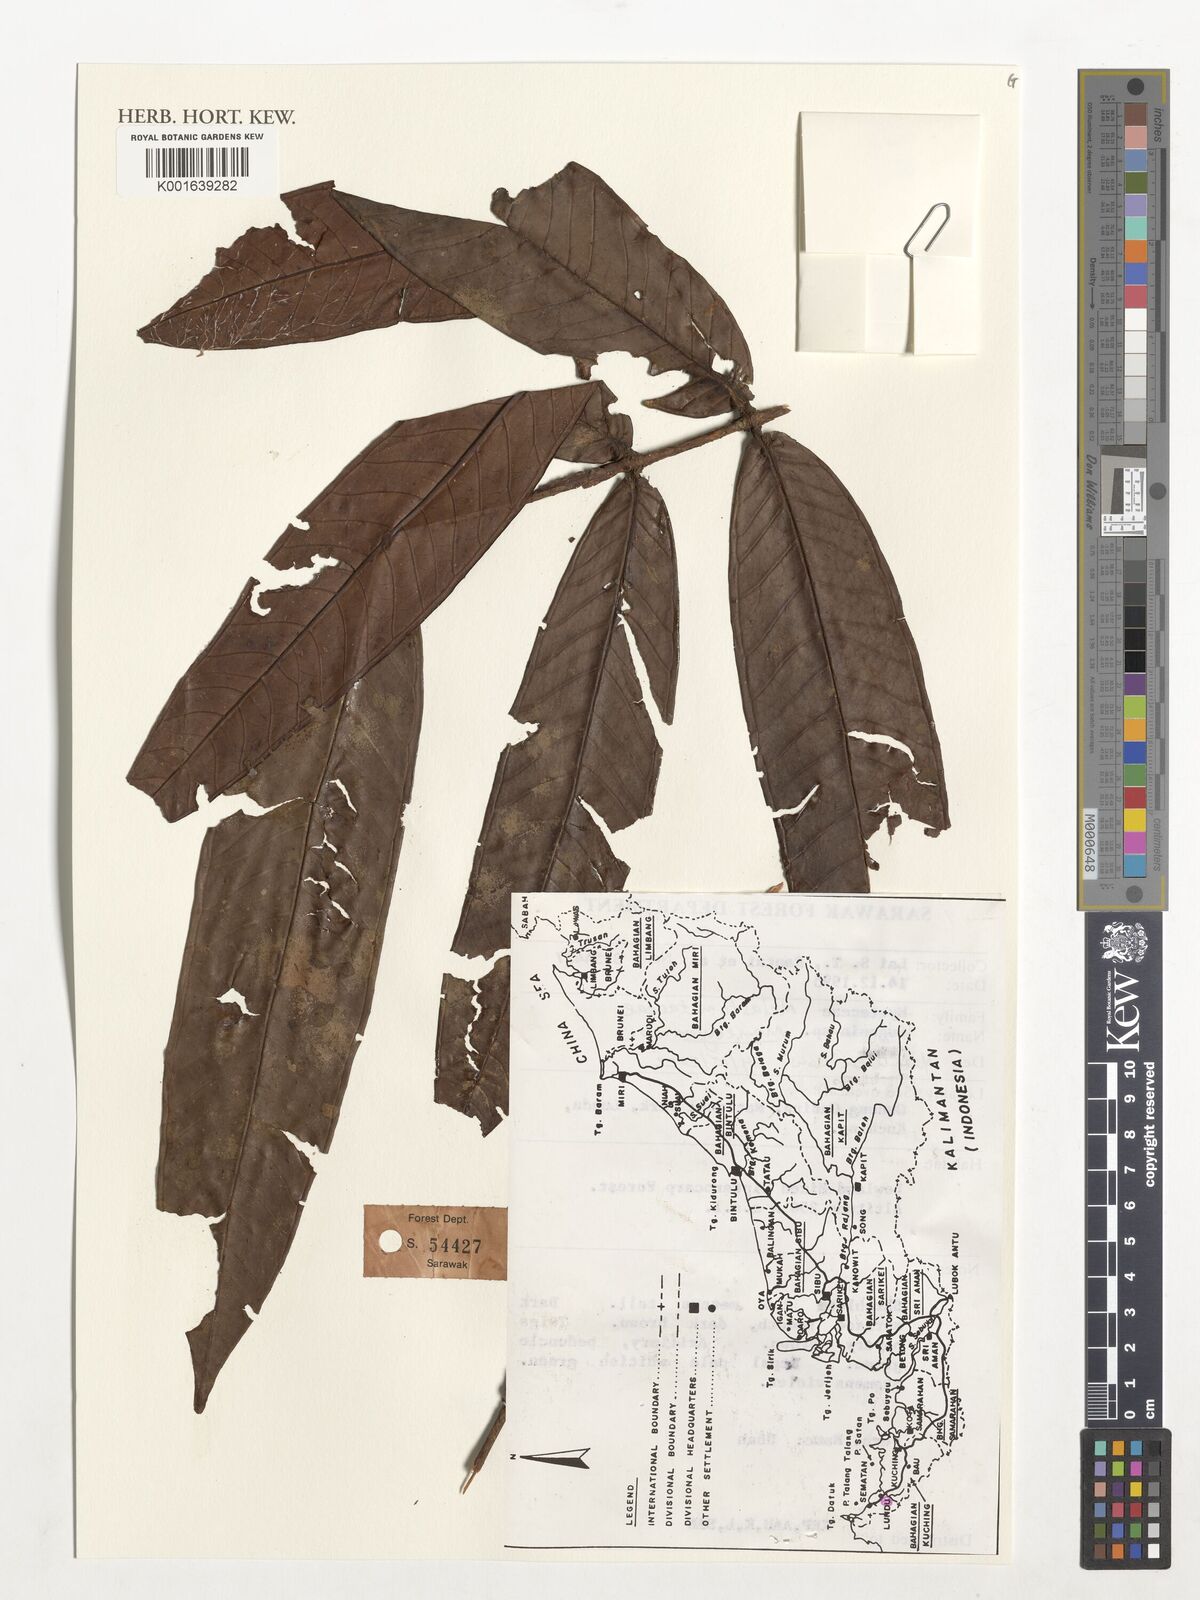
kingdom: Plantae
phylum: Tracheophyta
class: Magnoliopsida
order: Myrtales
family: Melastomataceae
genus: Memecylon
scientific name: Memecylon
